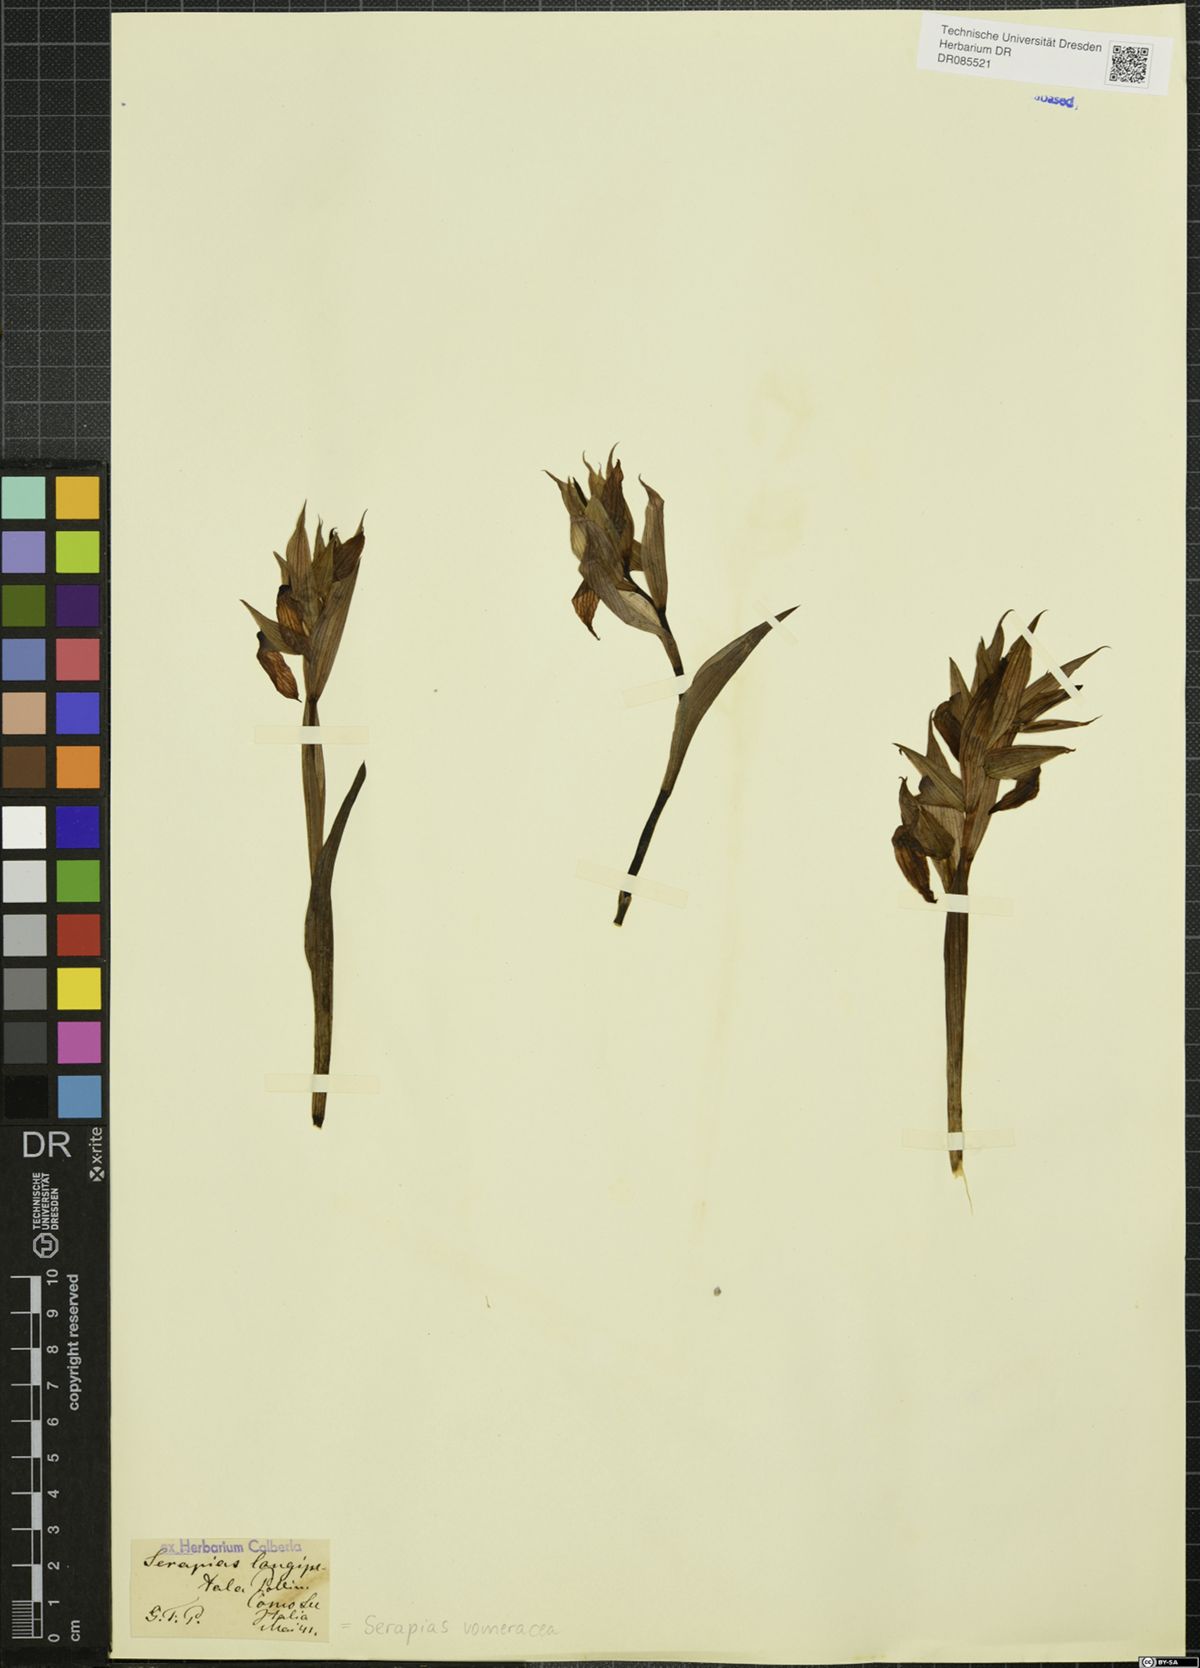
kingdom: Plantae
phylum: Tracheophyta
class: Liliopsida
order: Asparagales
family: Orchidaceae
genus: Serapias
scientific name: Serapias vomeracea
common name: Long-lipped tongue-orchid
